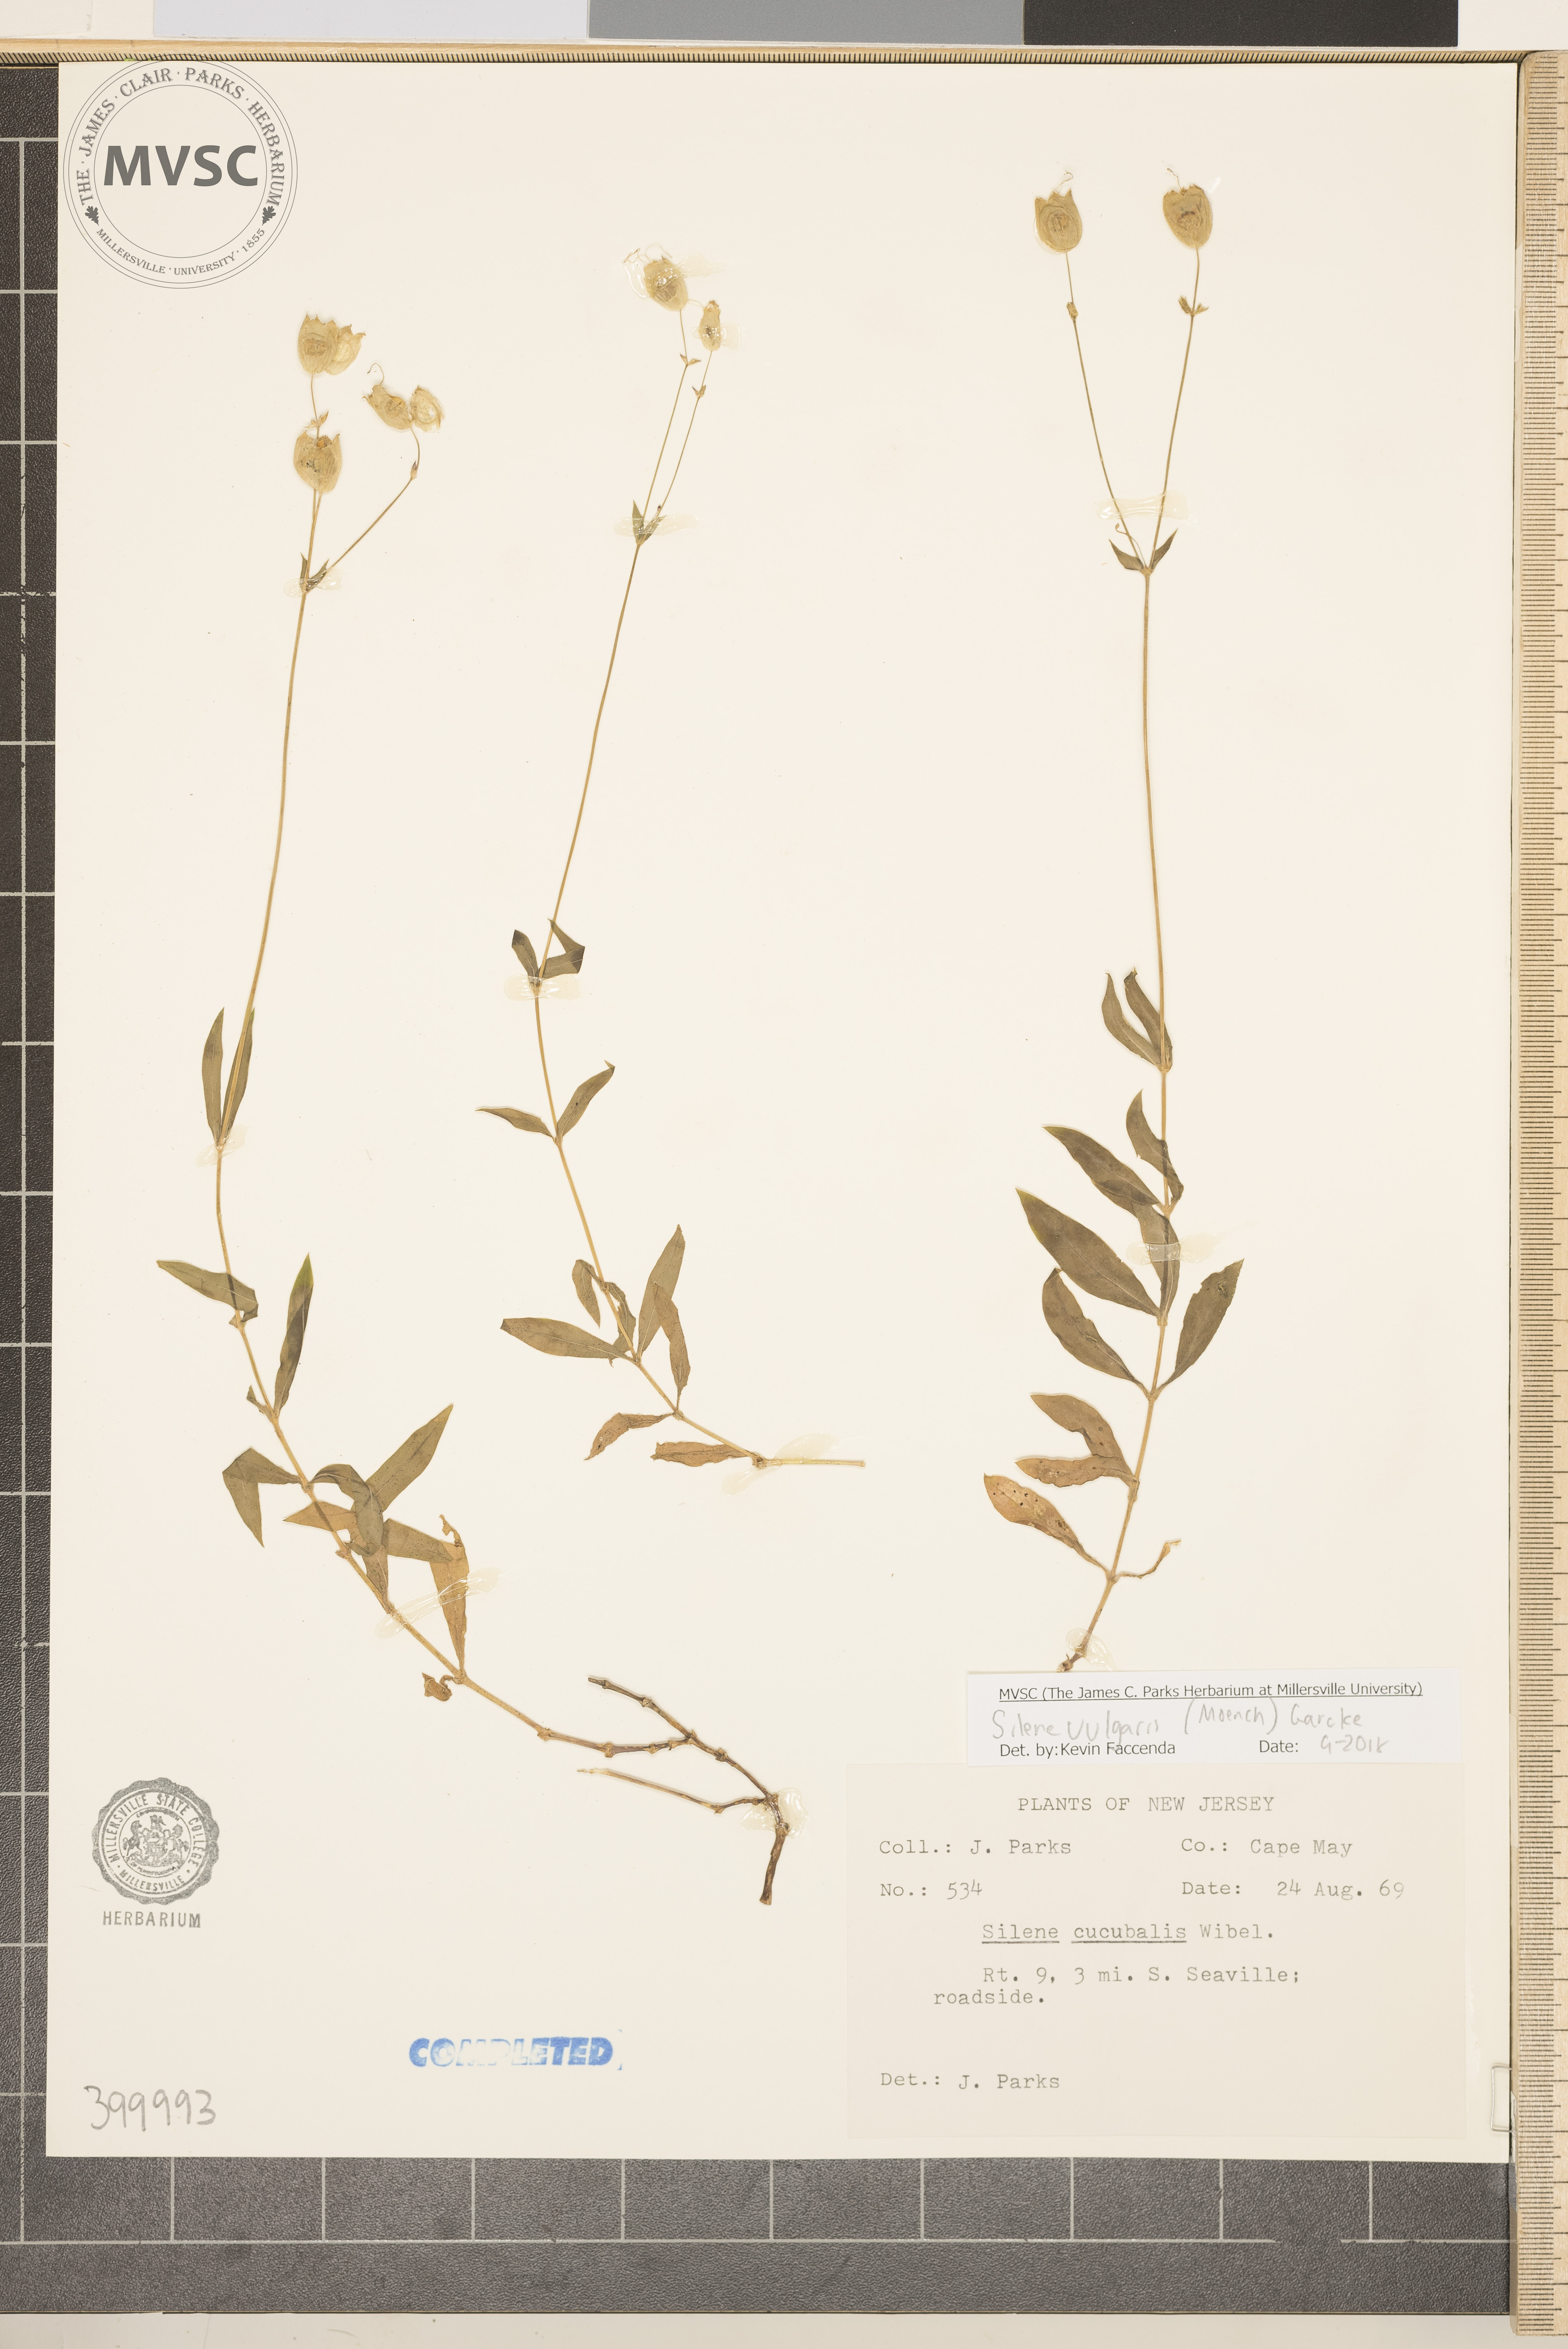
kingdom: Plantae
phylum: Tracheophyta
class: Magnoliopsida
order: Caryophyllales
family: Caryophyllaceae
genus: Silene
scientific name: Silene vulgaris
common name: Bladder campion
